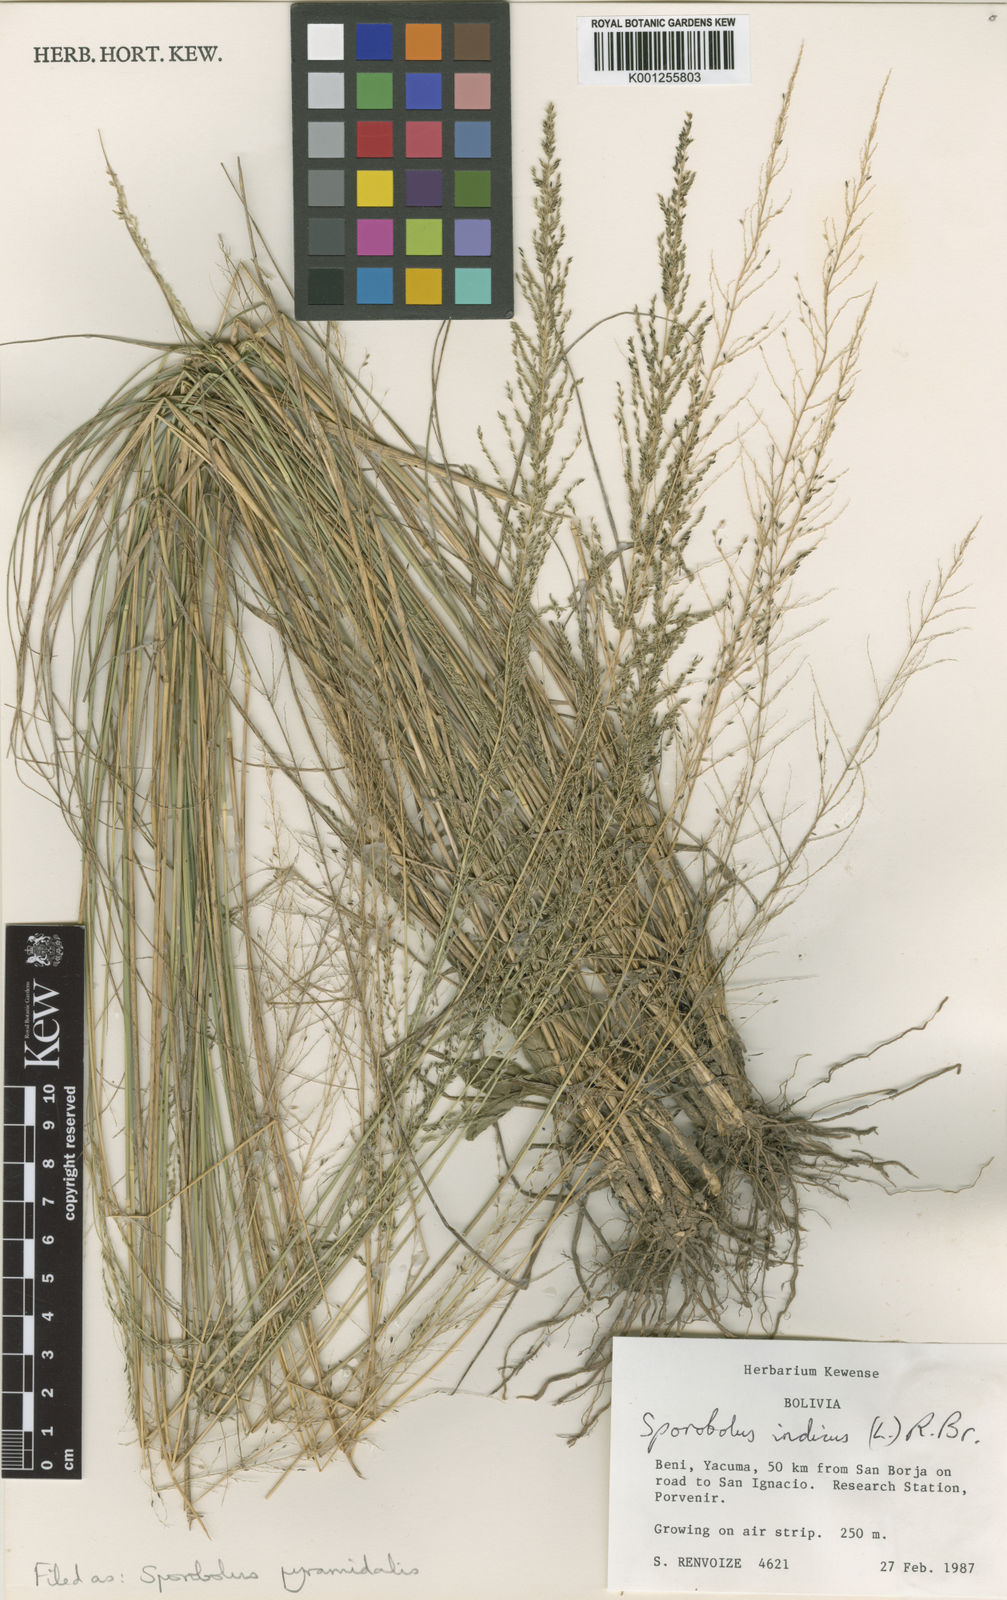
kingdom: Plantae
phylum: Tracheophyta
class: Liliopsida
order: Poales
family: Poaceae
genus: Sporobolus
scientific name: Sporobolus pyramidalis
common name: West indian dropseed
